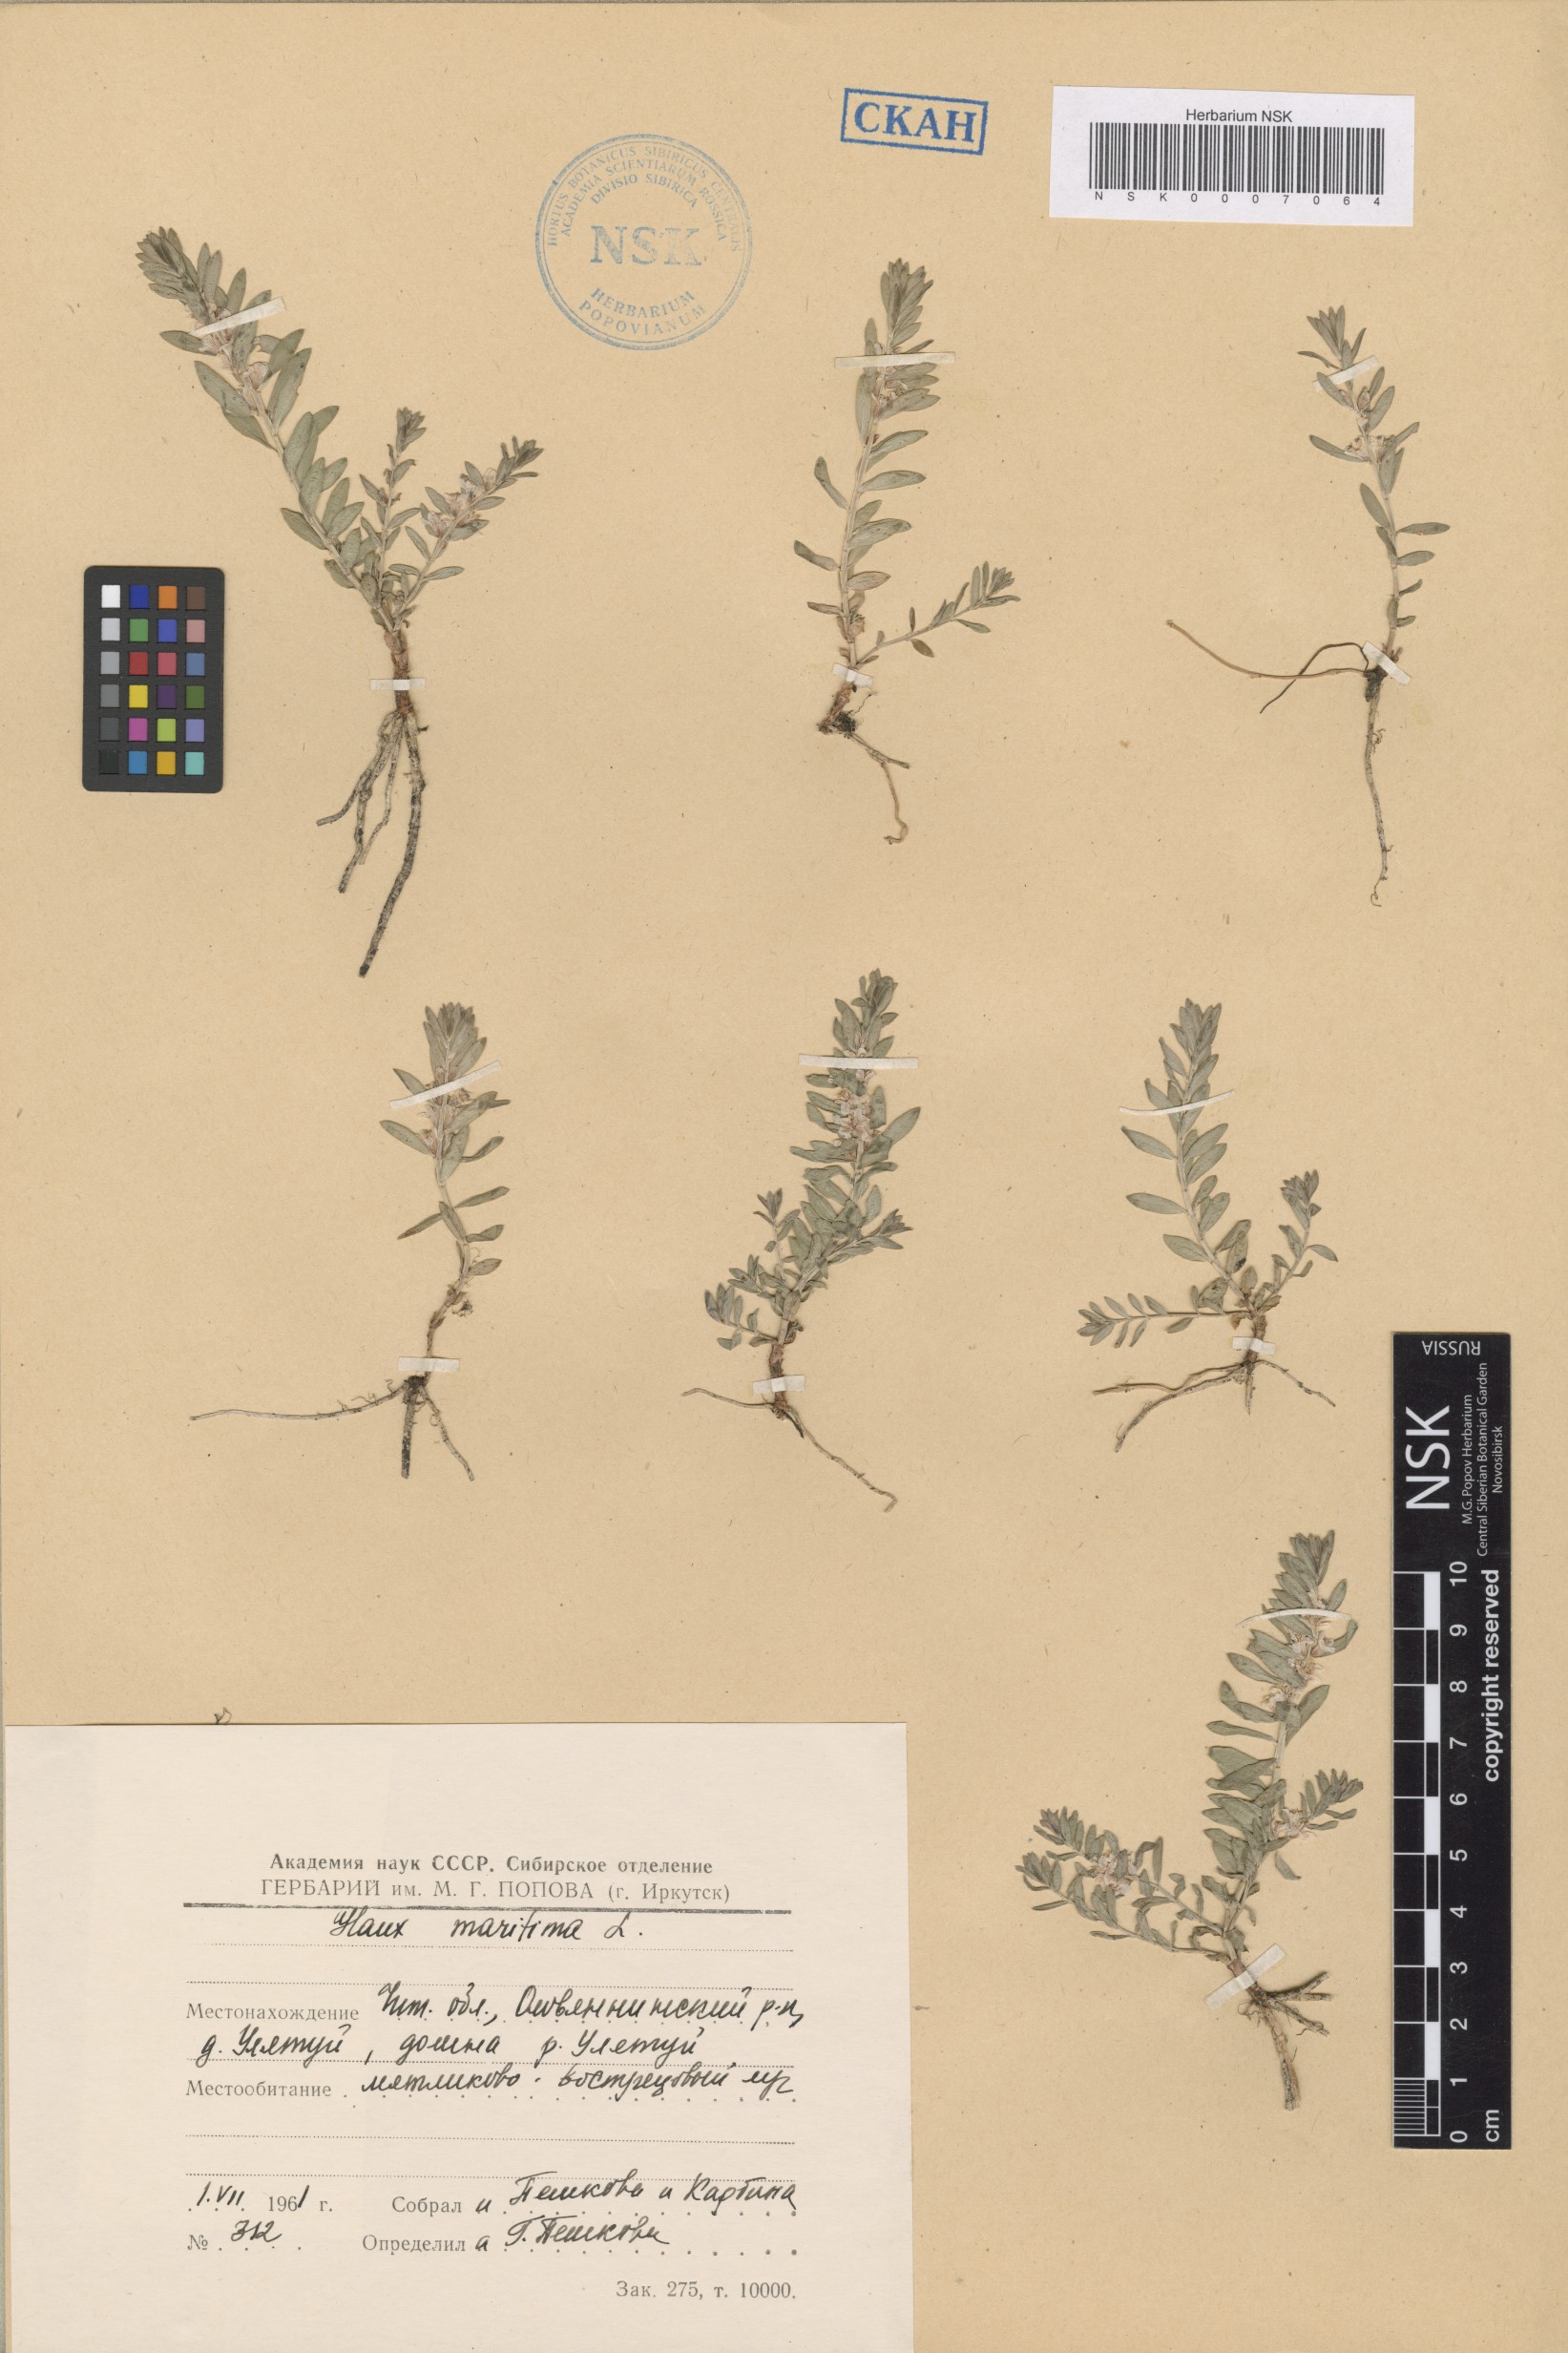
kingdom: Plantae
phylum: Tracheophyta
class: Magnoliopsida
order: Ericales
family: Primulaceae
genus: Lysimachia
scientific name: Lysimachia maritima
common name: Sea milkwort
